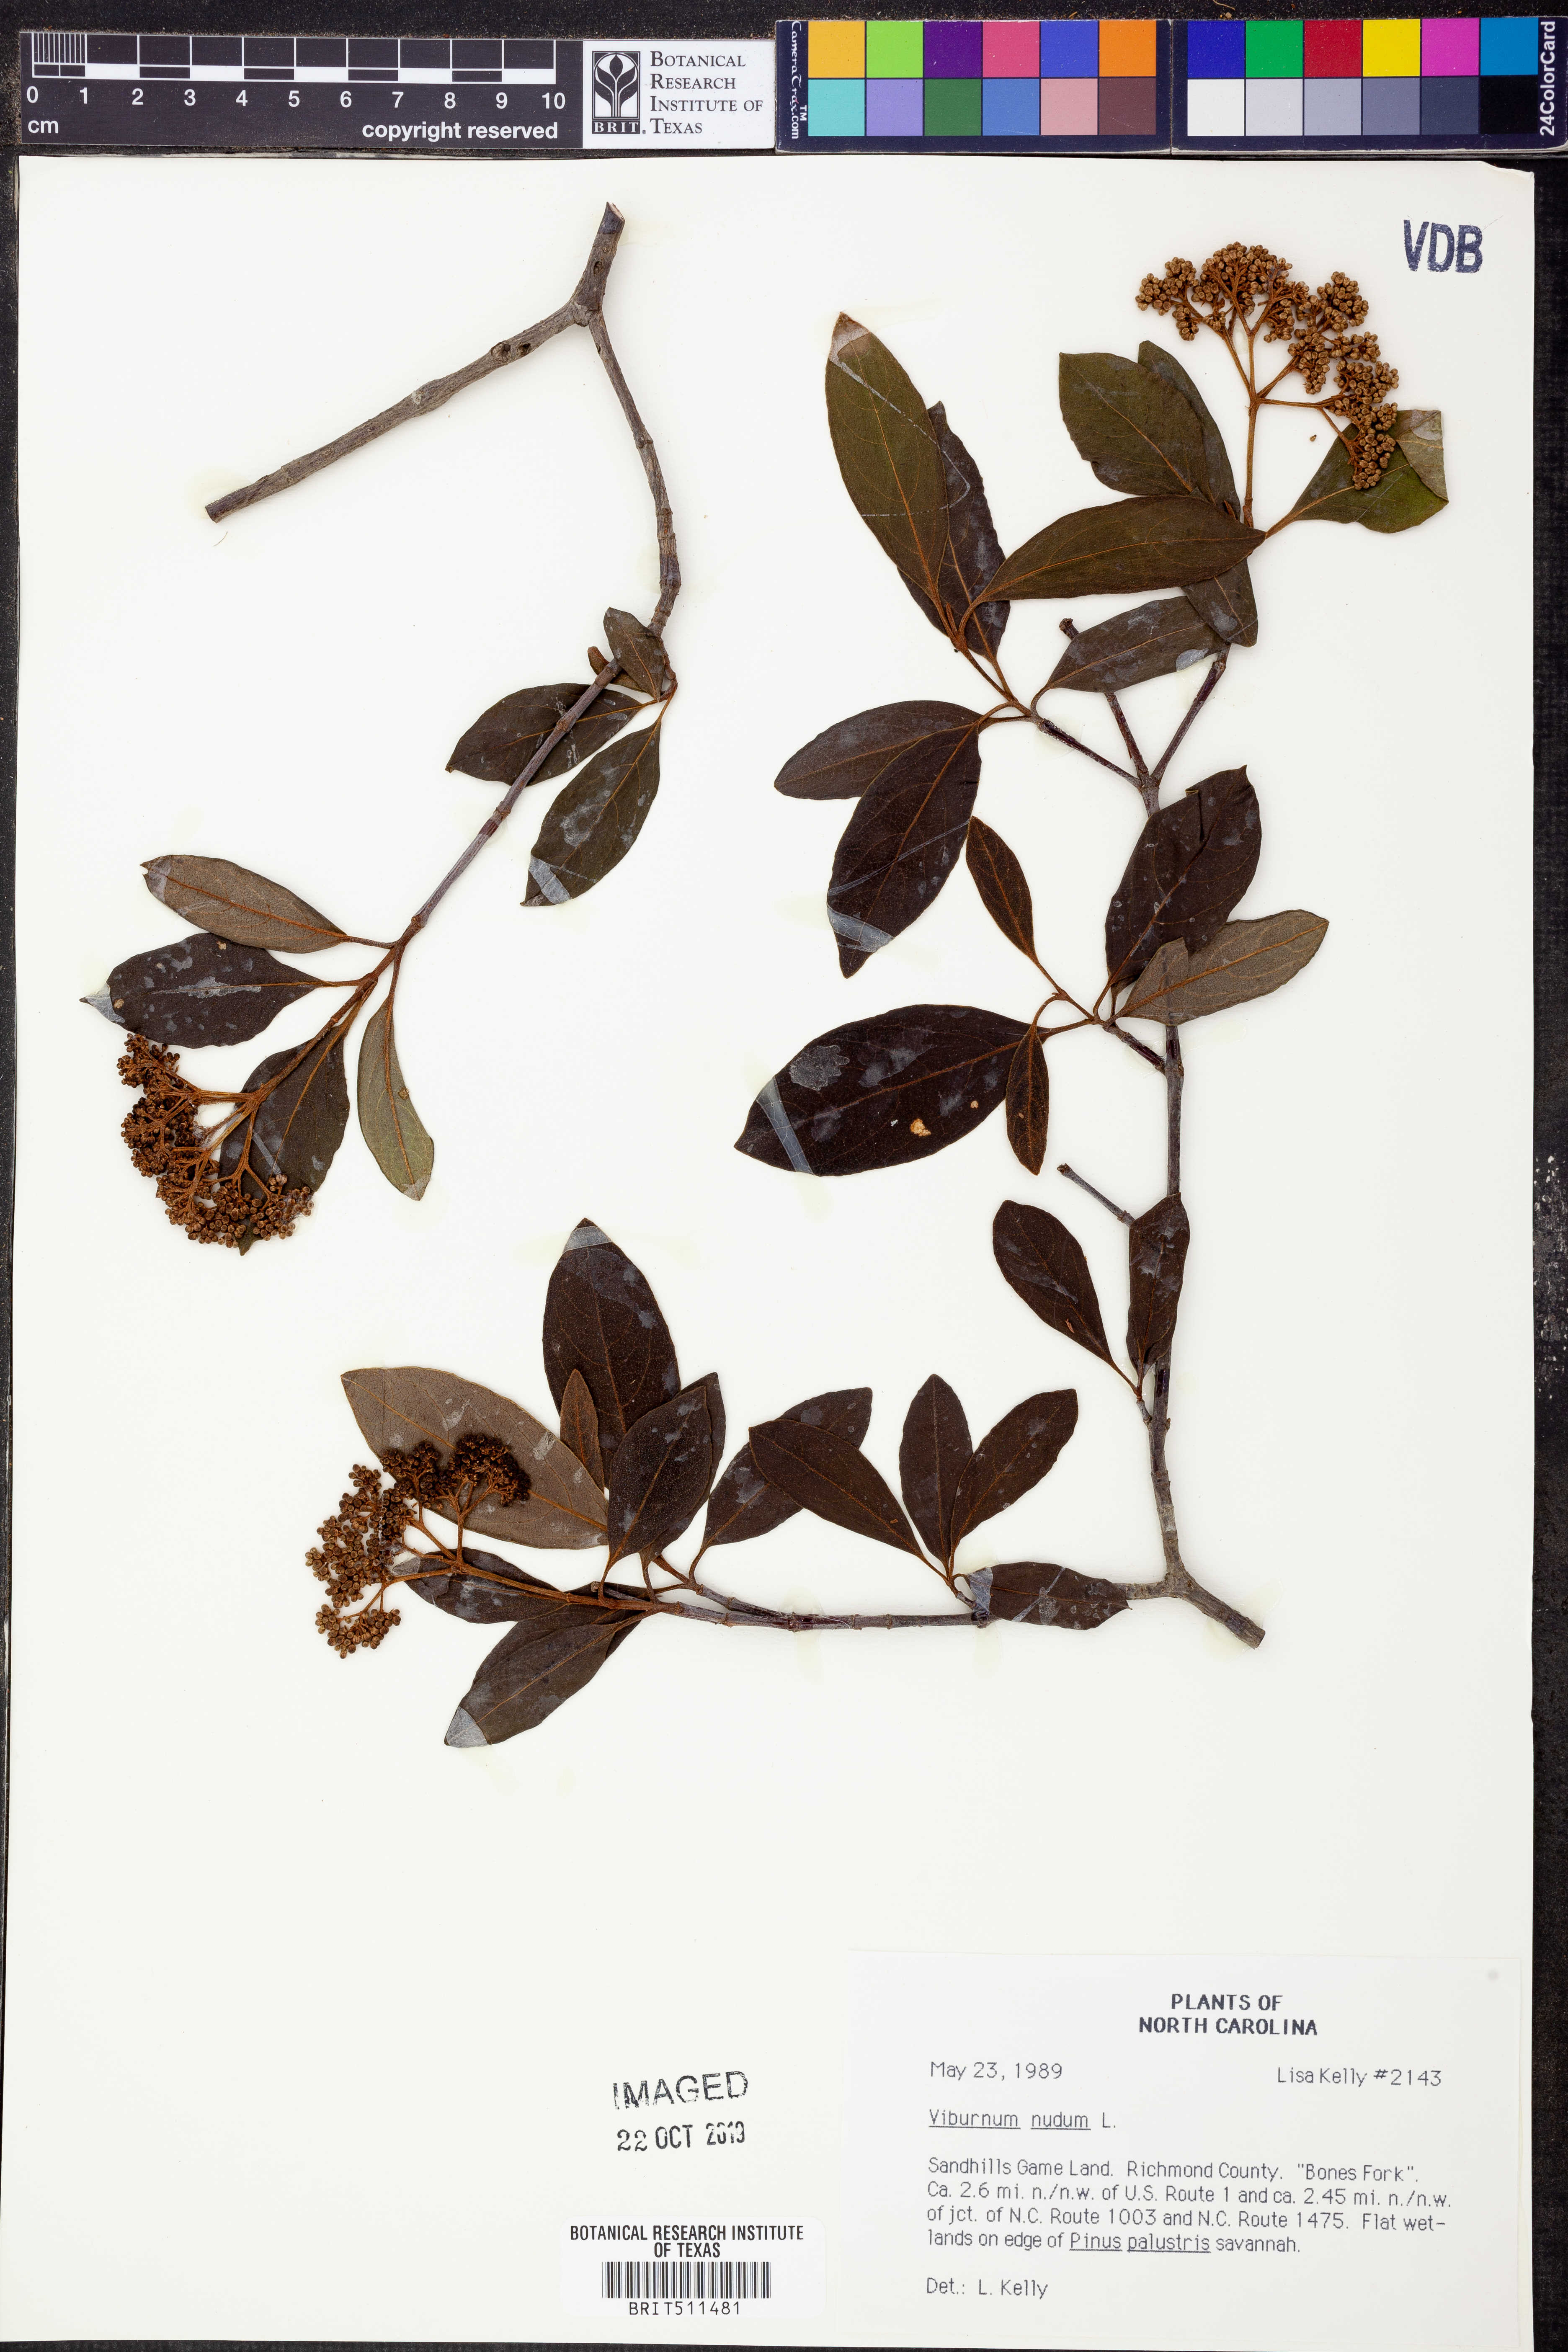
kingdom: Plantae
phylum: Tracheophyta
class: Magnoliopsida
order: Dipsacales
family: Viburnaceae
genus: Viburnum
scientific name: Viburnum nudum
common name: Possum haw
